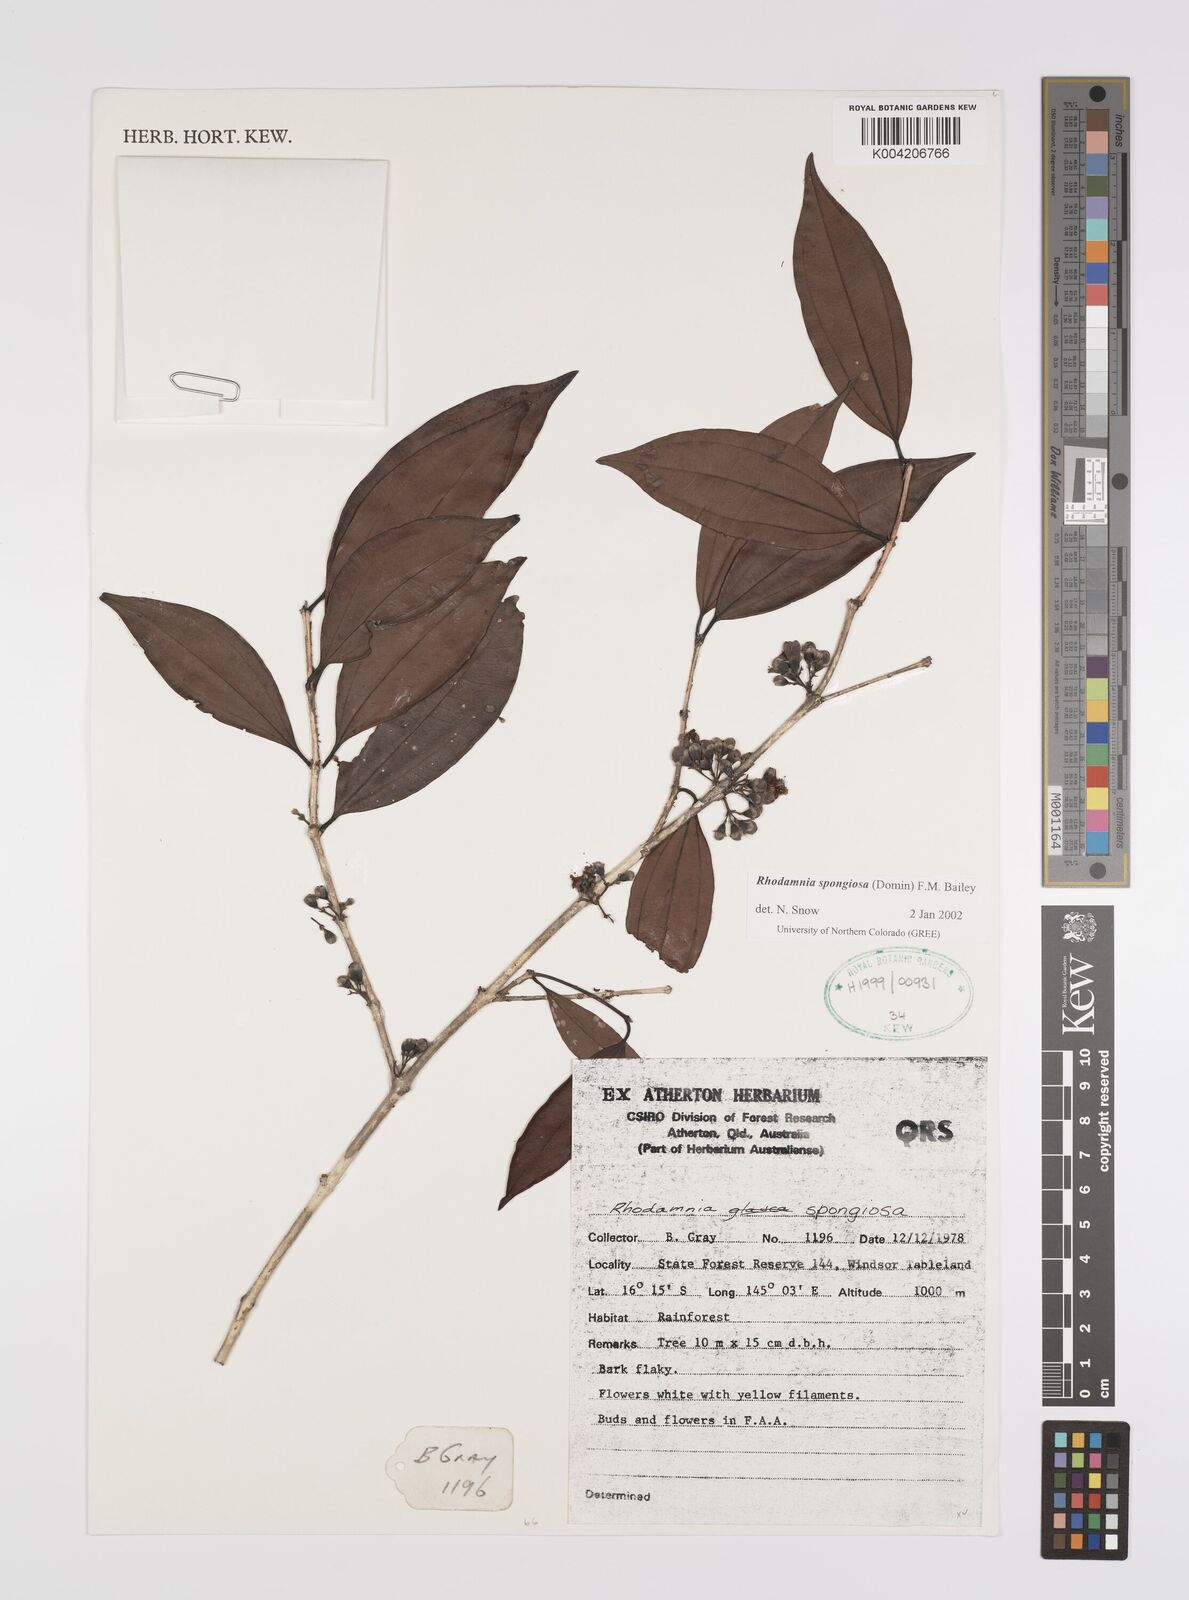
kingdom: Plantae
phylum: Tracheophyta
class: Magnoliopsida
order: Myrtales
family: Myrtaceae
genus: Rhodamnia
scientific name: Rhodamnia glauca
